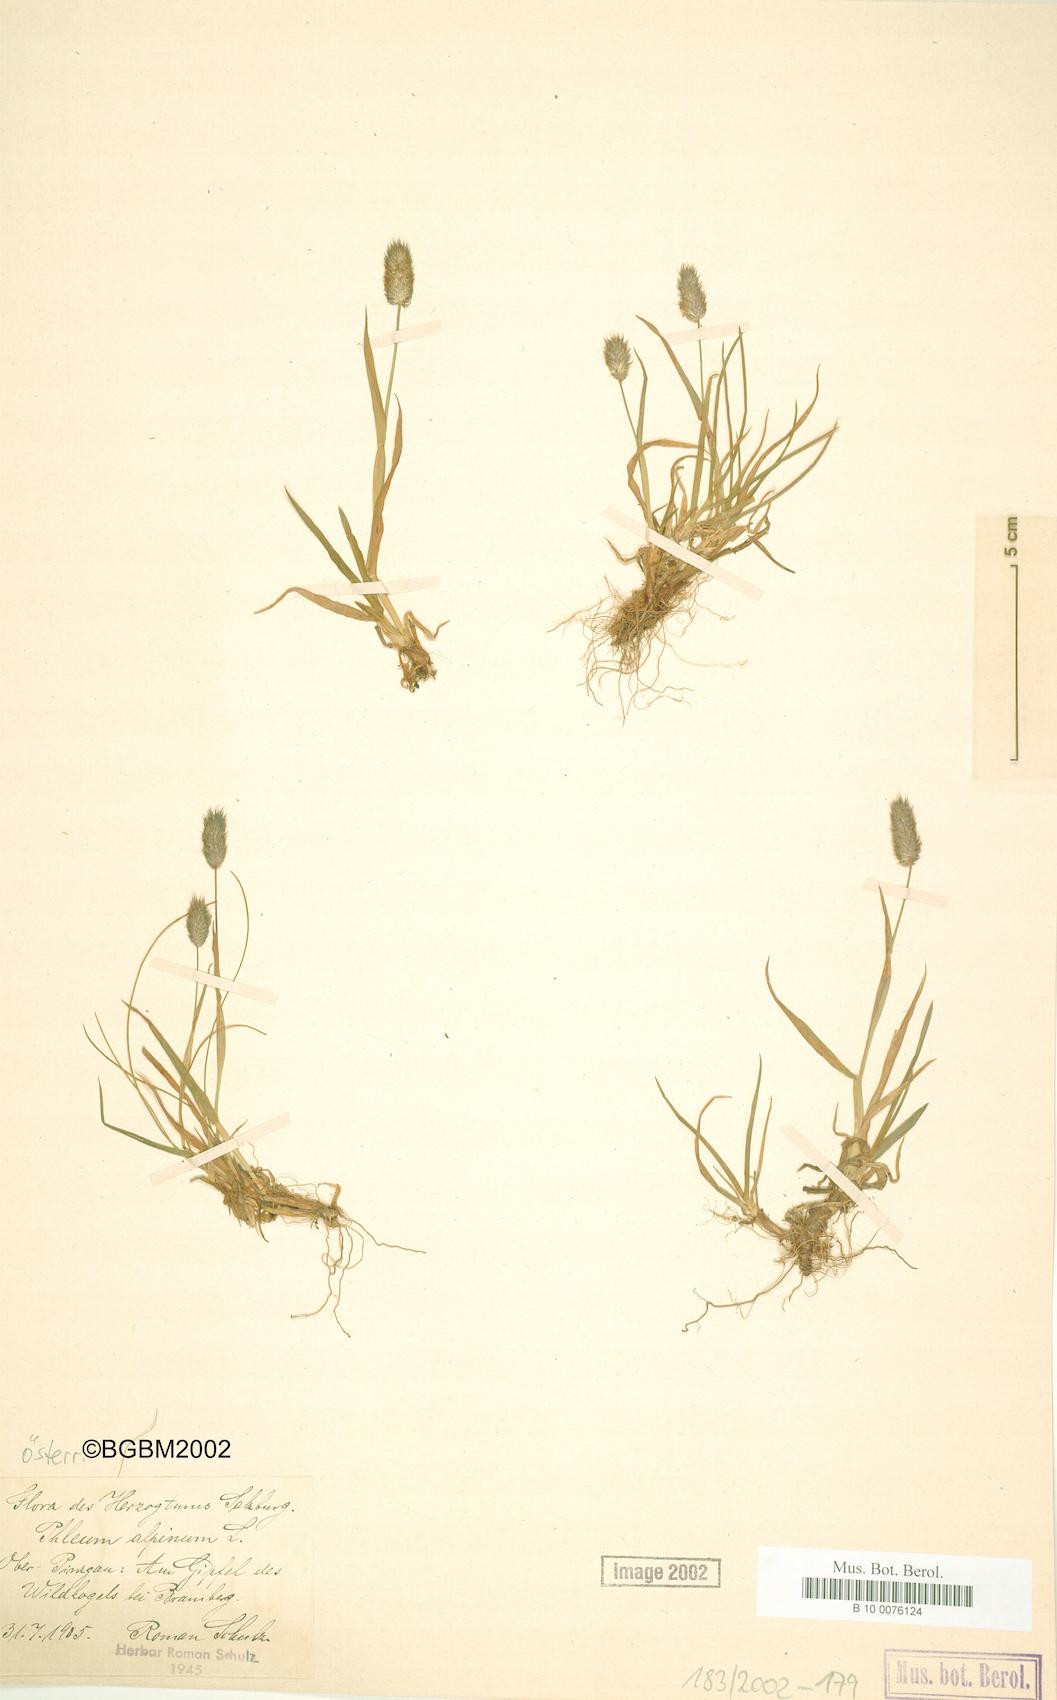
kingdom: Plantae
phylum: Tracheophyta
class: Liliopsida
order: Poales
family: Poaceae
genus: Phleum
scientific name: Phleum alpinum
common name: Alpine cat's-tail
